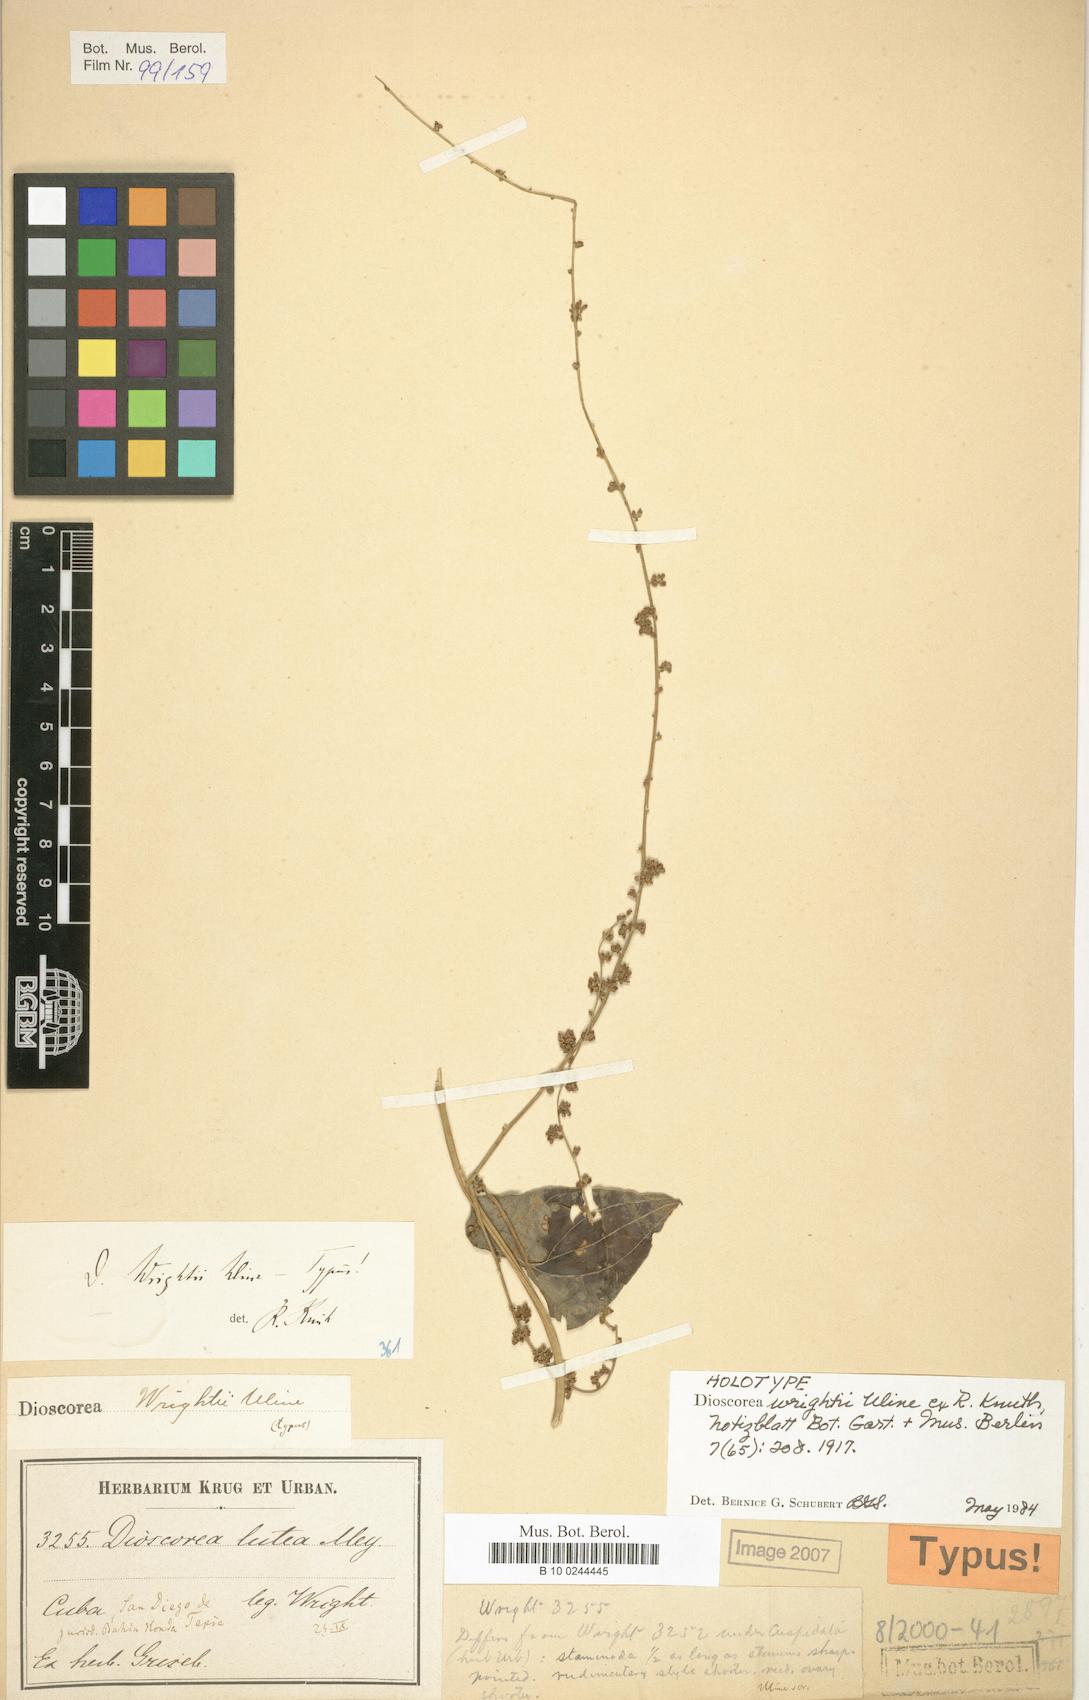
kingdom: Plantae
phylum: Tracheophyta
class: Liliopsida
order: Dioscoreales
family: Dioscoreaceae
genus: Dioscorea
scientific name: Dioscorea wrightii
